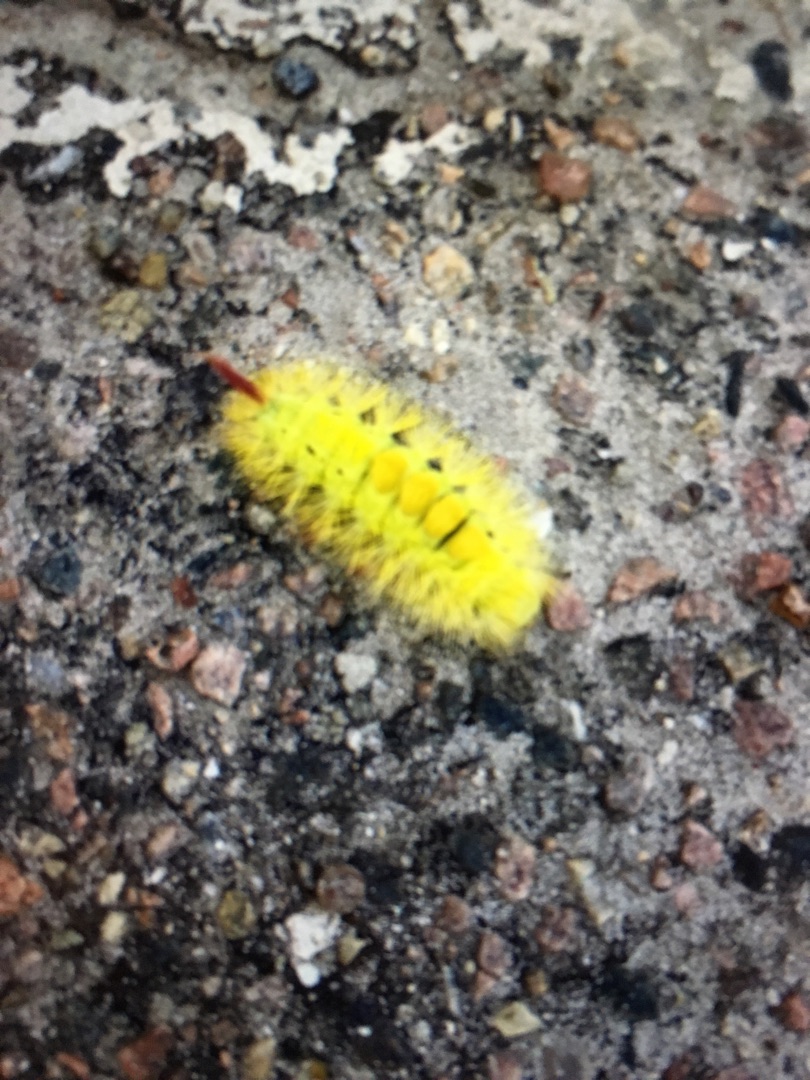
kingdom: Animalia
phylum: Arthropoda
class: Insecta
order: Lepidoptera
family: Erebidae
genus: Calliteara
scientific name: Calliteara pudibunda
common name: Bøgenonne
